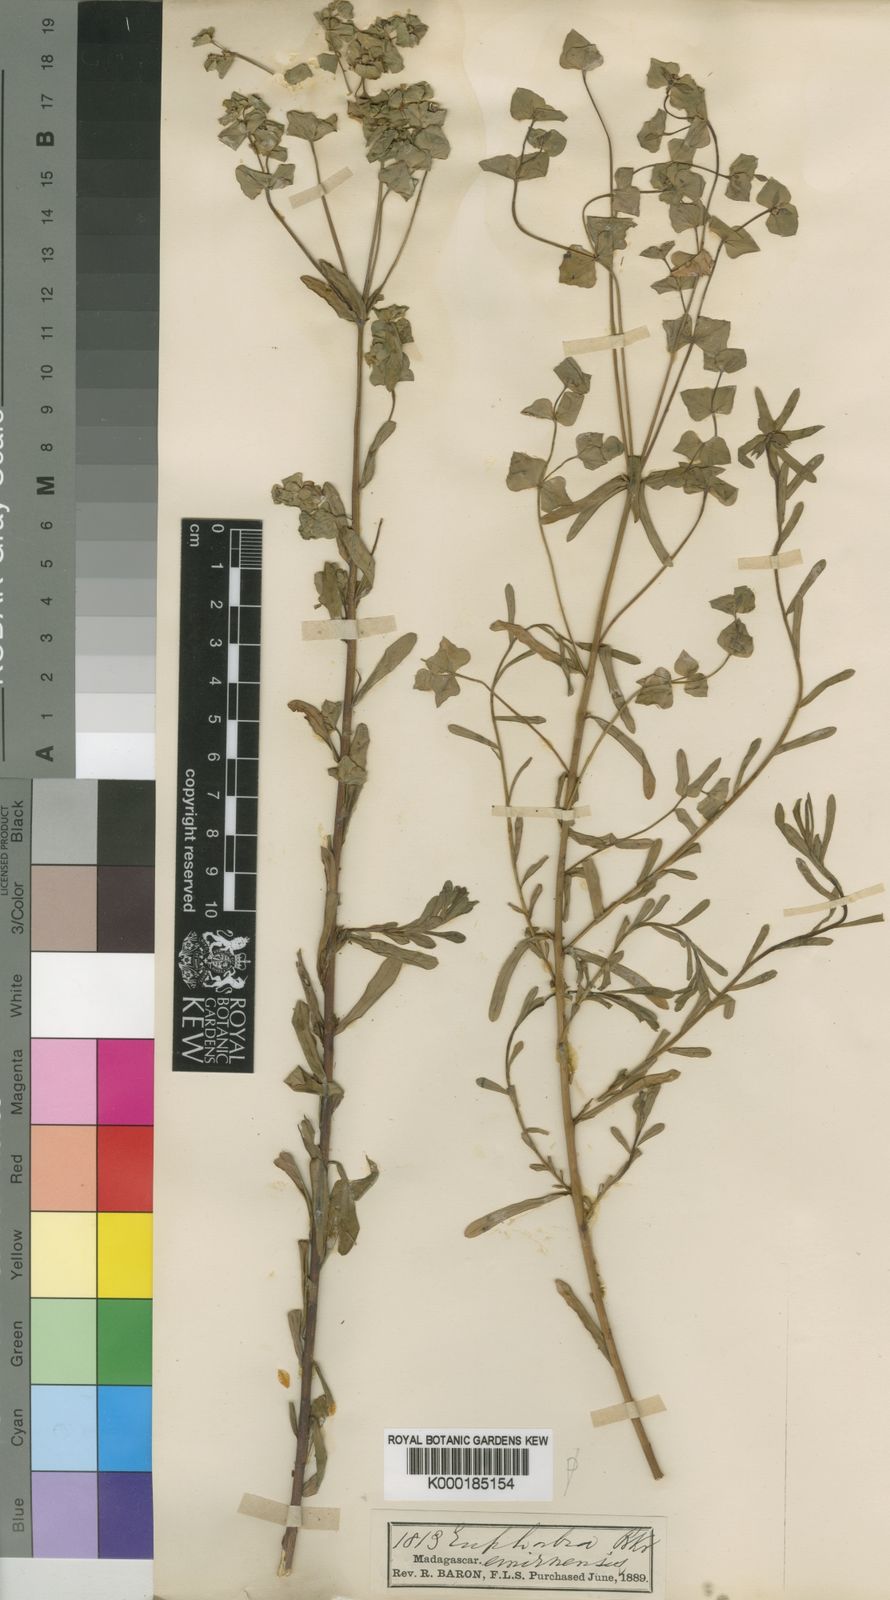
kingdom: Plantae
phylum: Tracheophyta
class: Magnoliopsida
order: Malpighiales
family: Euphorbiaceae
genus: Euphorbia
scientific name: Euphorbia emirnensis
